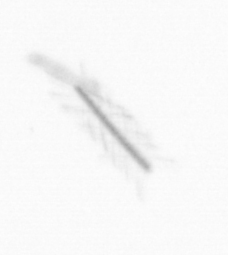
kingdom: Chromista
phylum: Ochrophyta
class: Bacillariophyceae
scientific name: Bacillariophyceae
